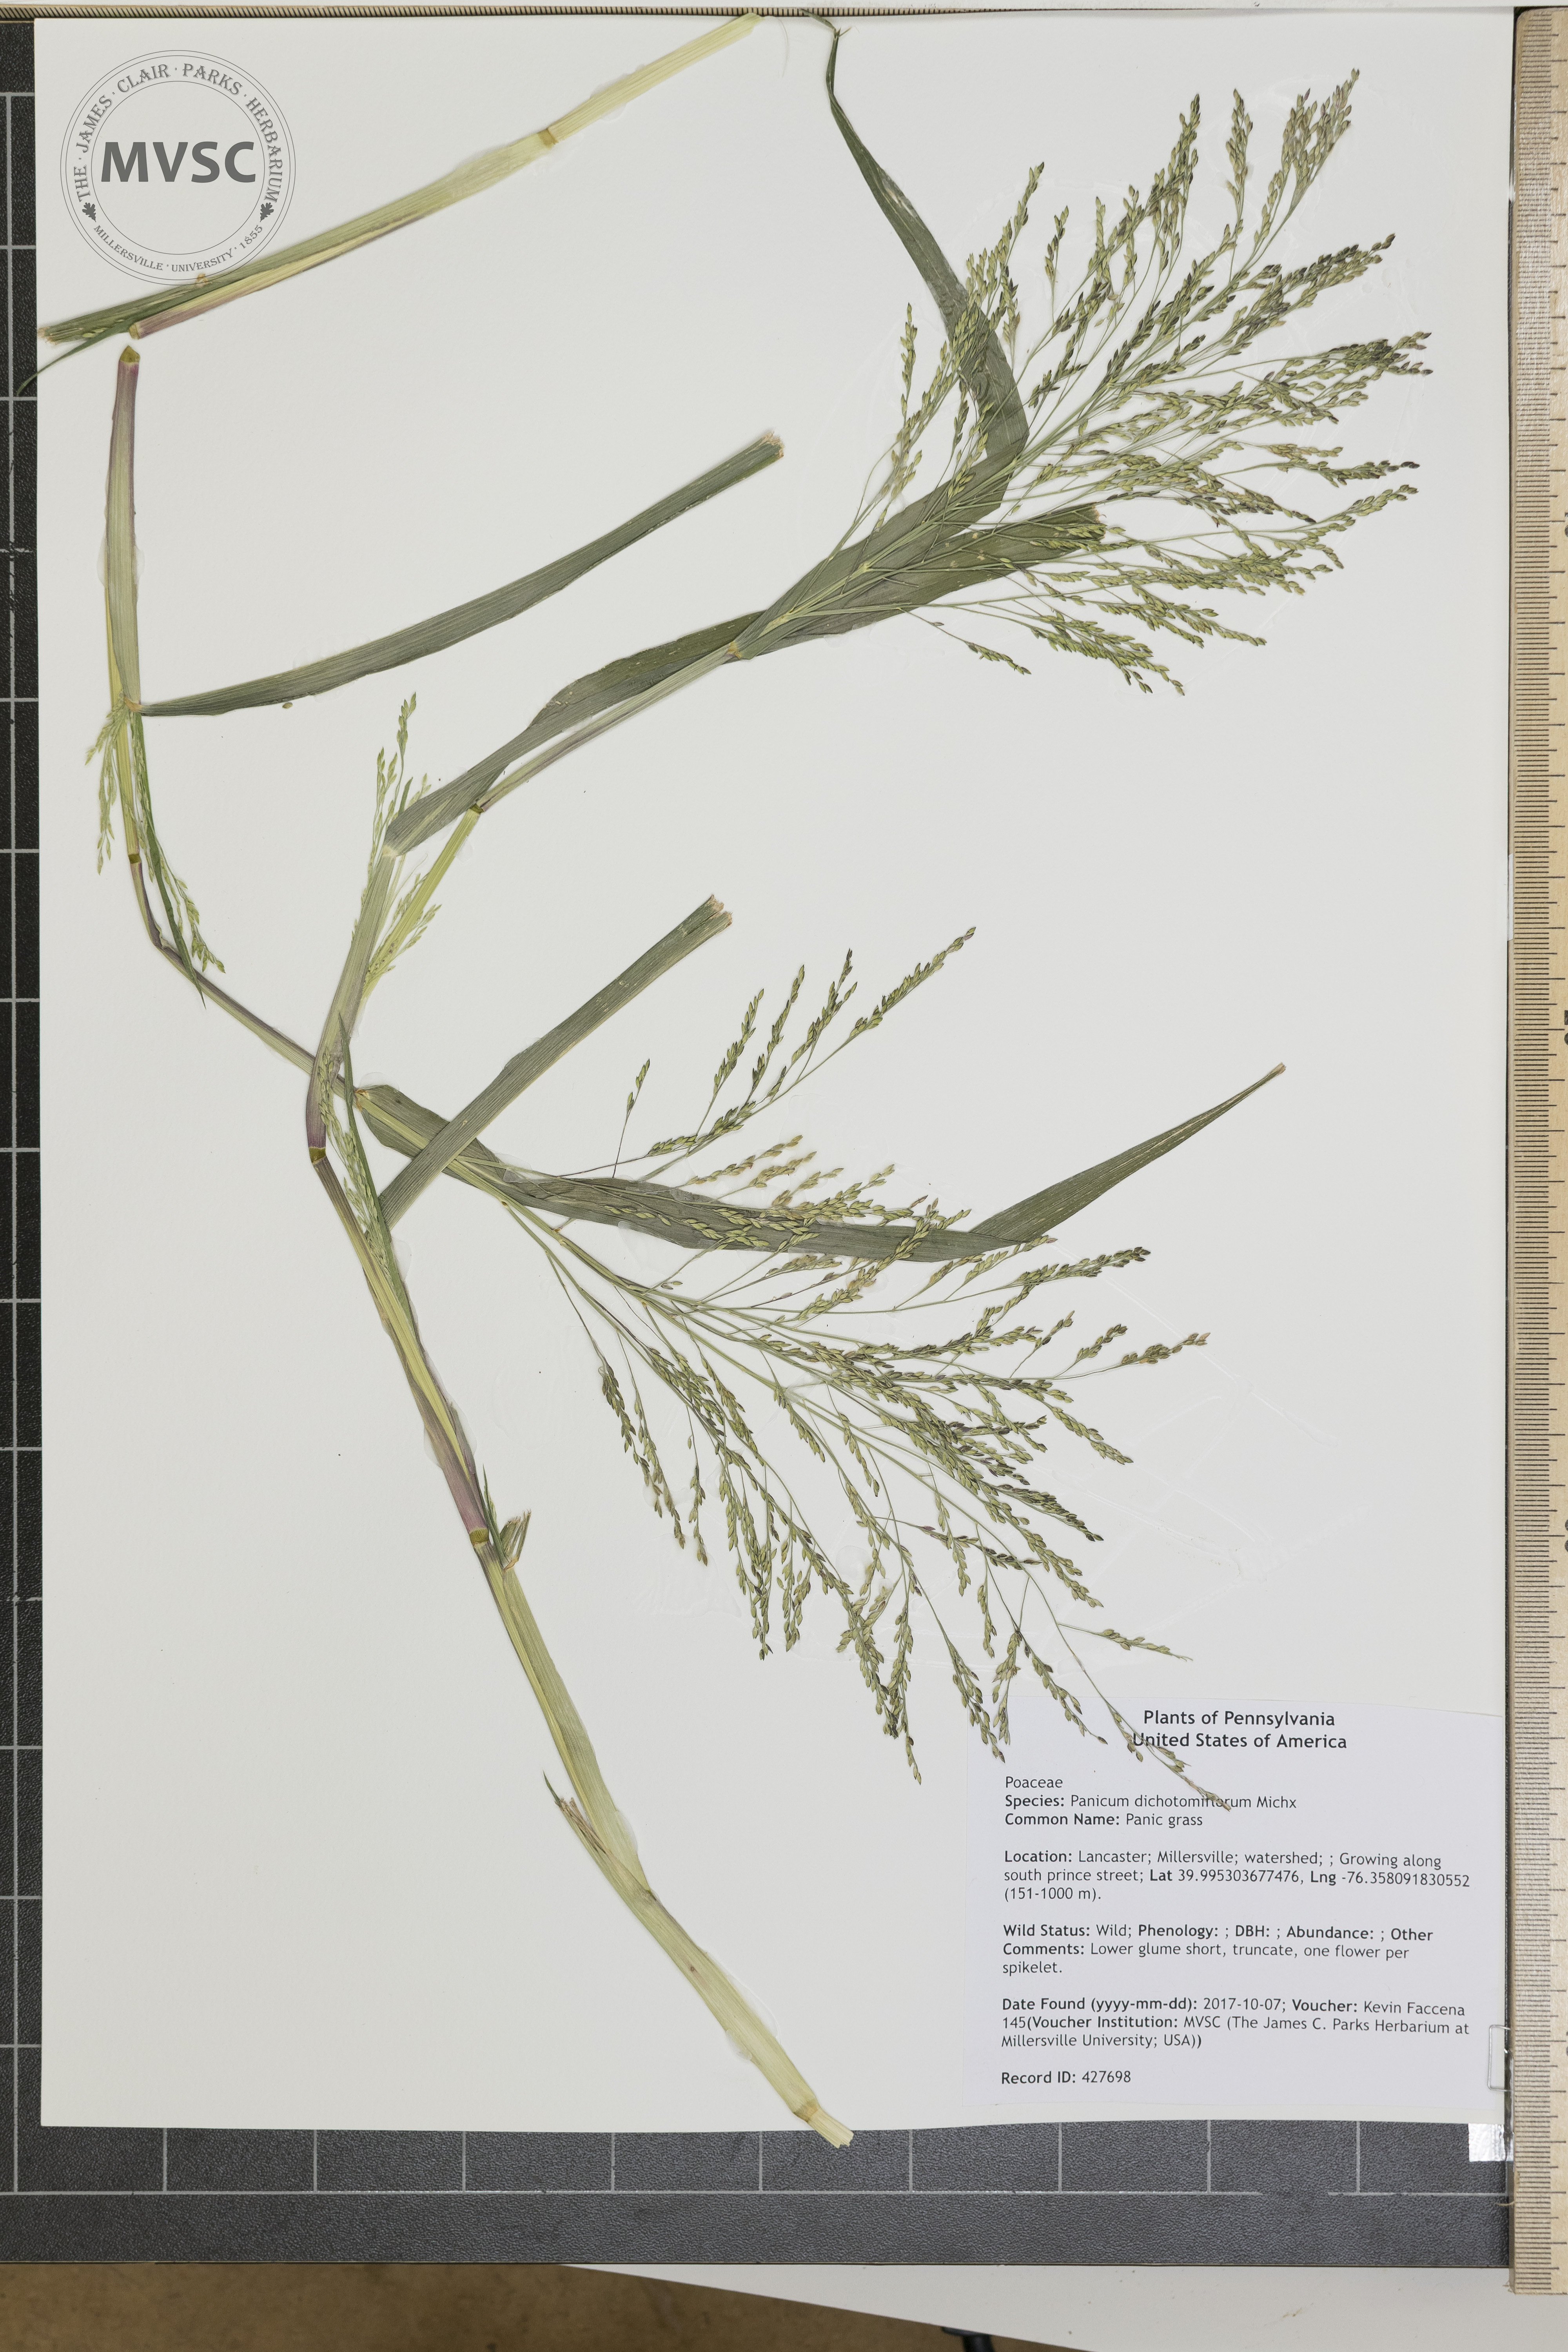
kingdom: Plantae
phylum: Tracheophyta
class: Liliopsida
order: Poales
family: Poaceae
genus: Panicum
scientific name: Panicum dichotomiflorum
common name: Panic grass
